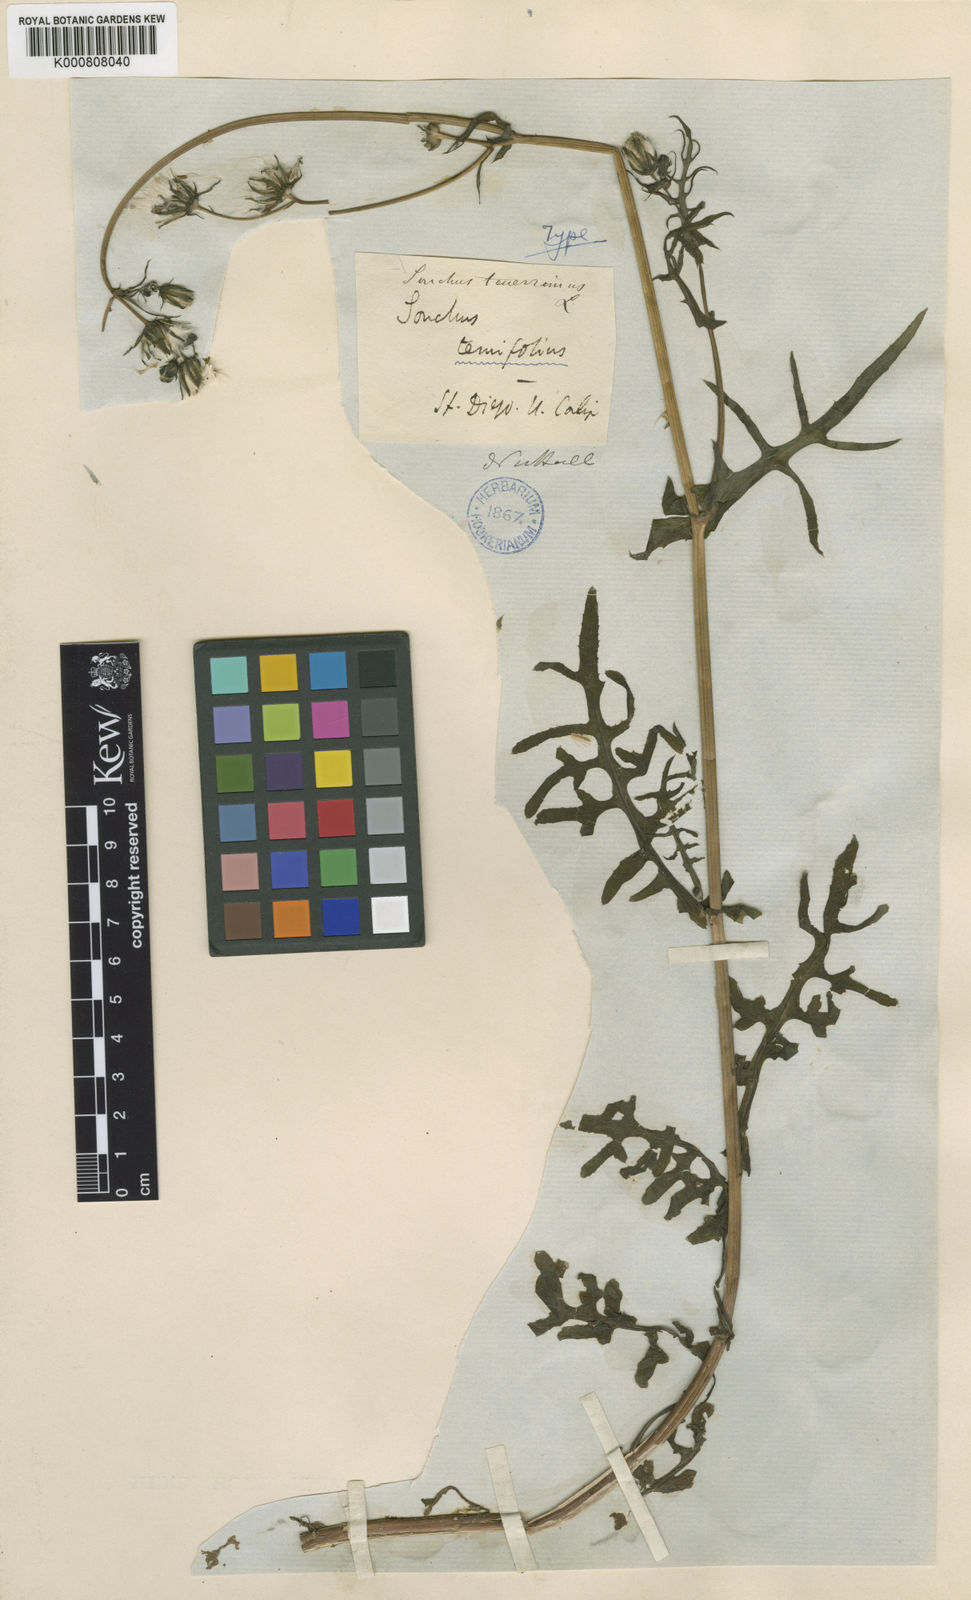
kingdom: Plantae
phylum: Tracheophyta
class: Magnoliopsida
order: Asterales
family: Asteraceae
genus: Sonchus
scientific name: Sonchus tenerrimus
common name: Clammy sowthistle
